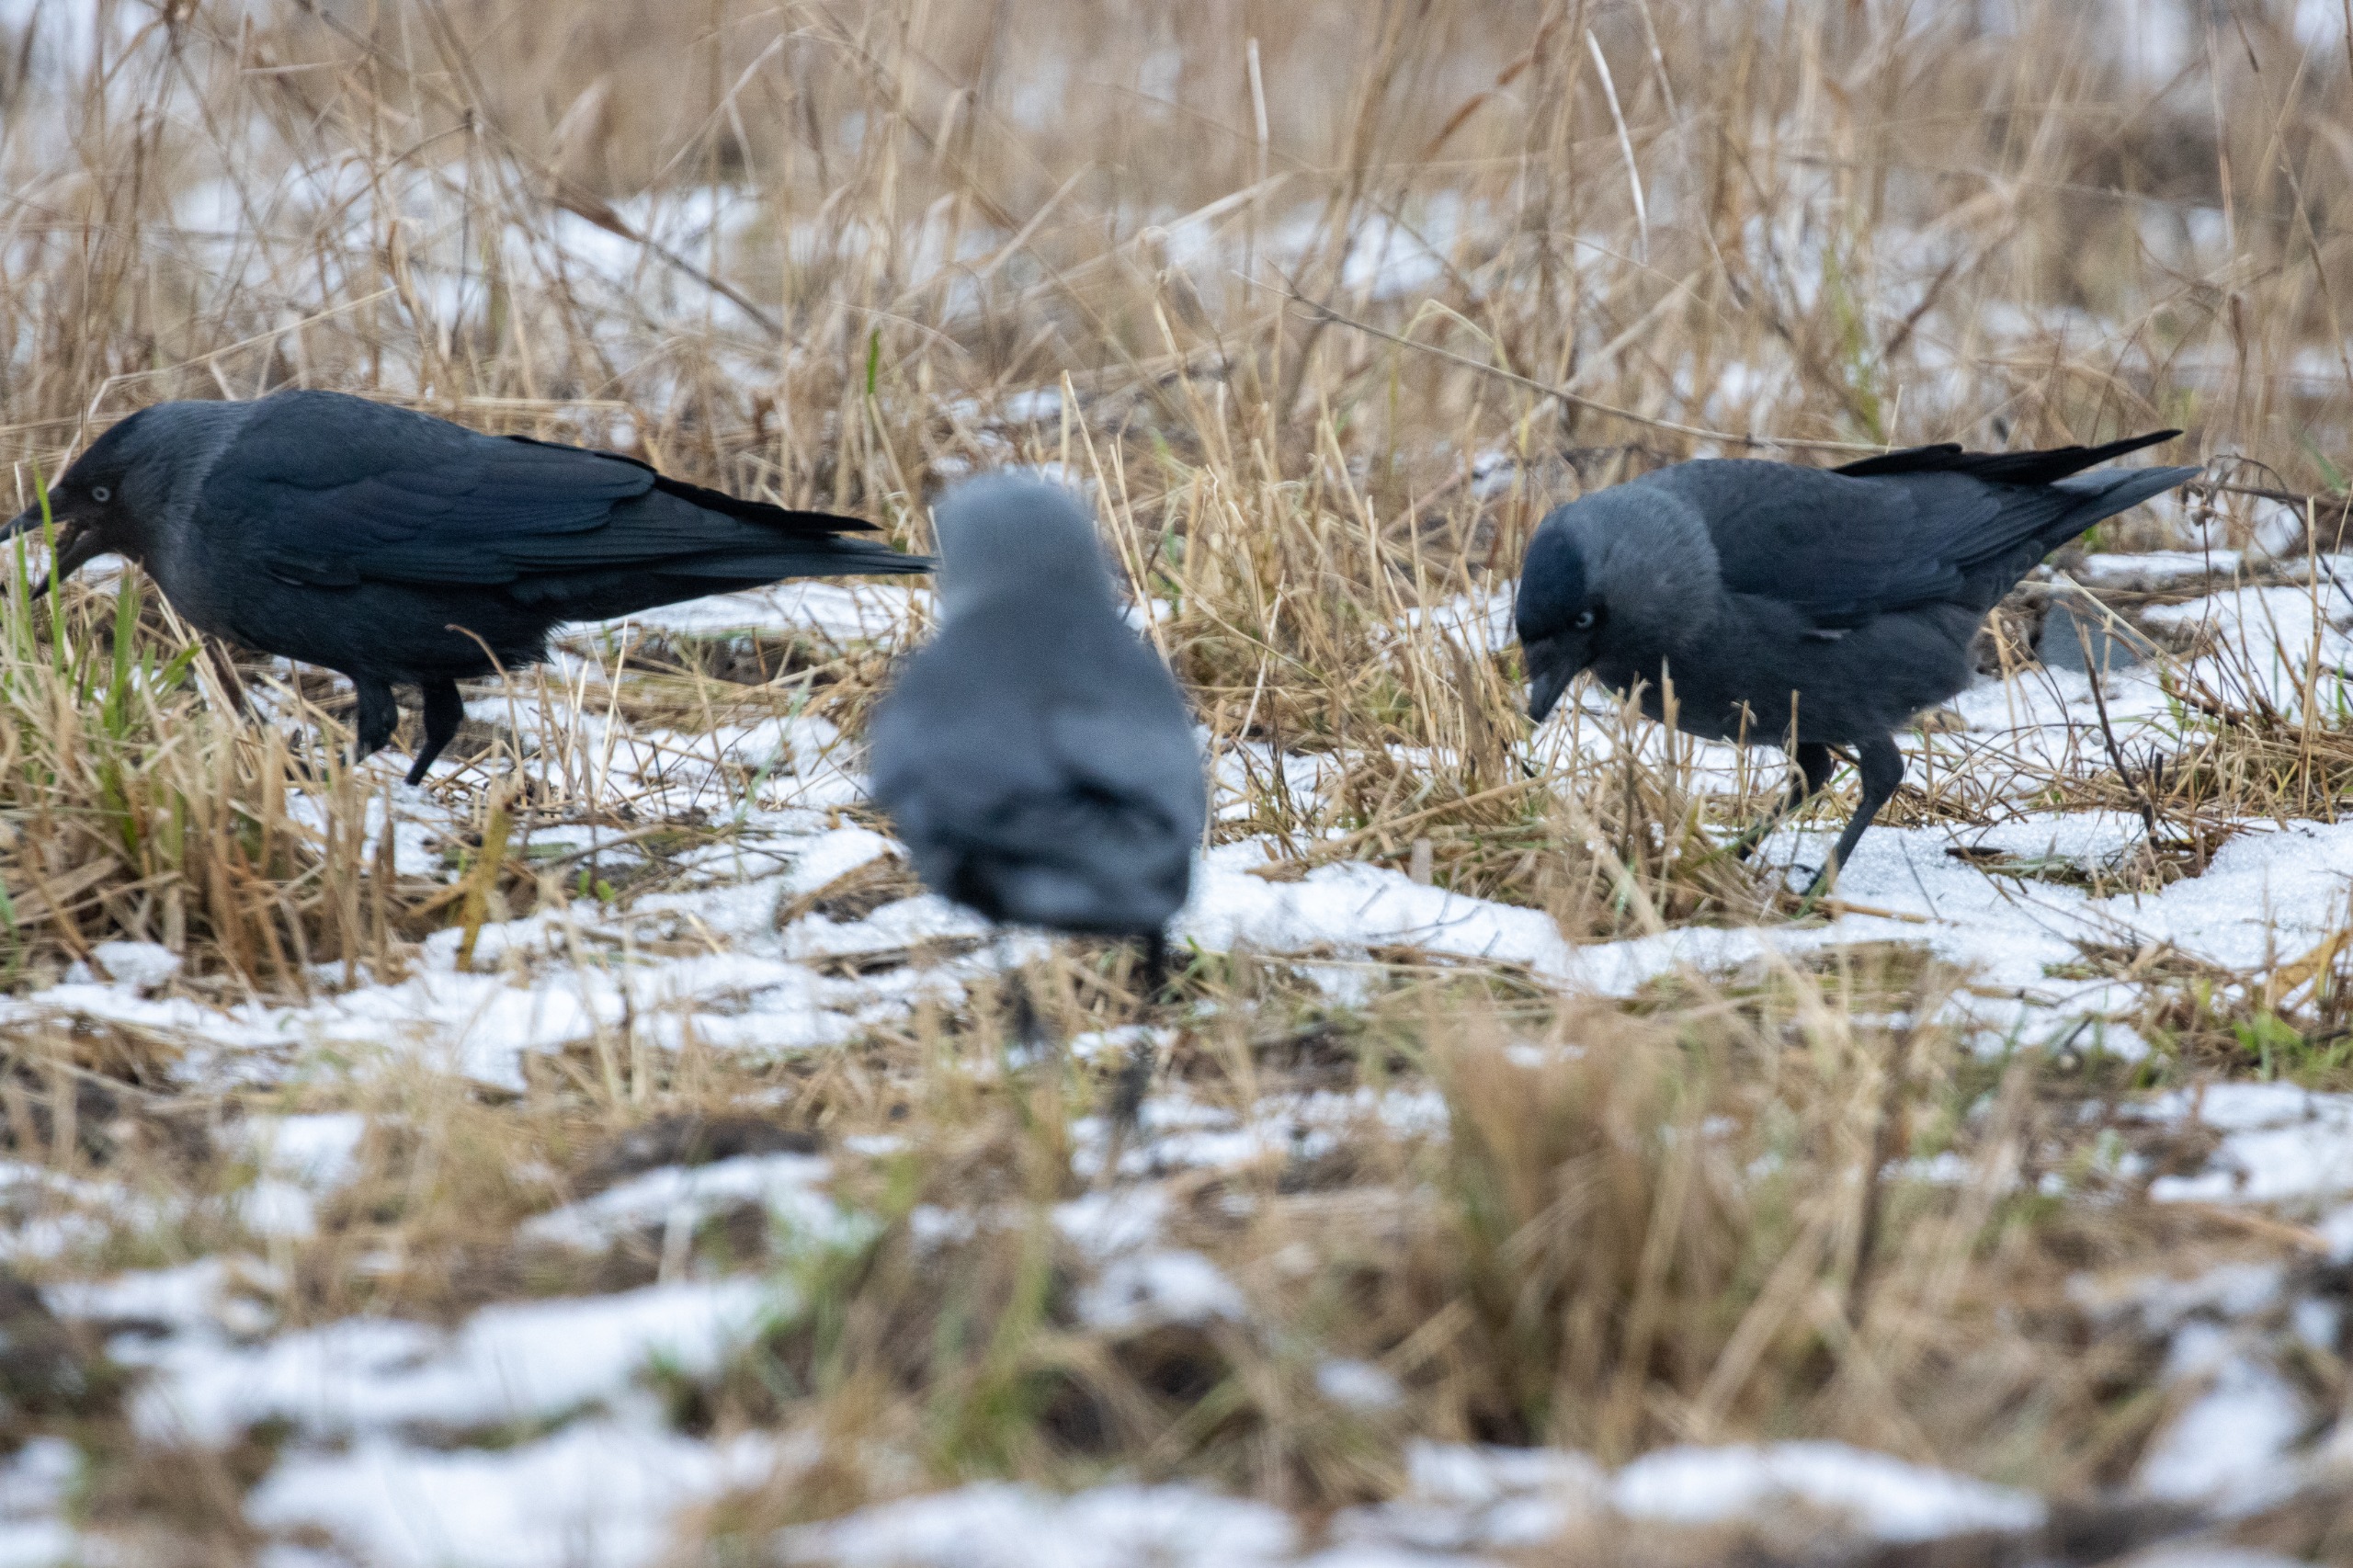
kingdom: Animalia
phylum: Chordata
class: Aves
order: Passeriformes
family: Corvidae
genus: Coloeus
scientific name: Coloeus monedula
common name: Allike
